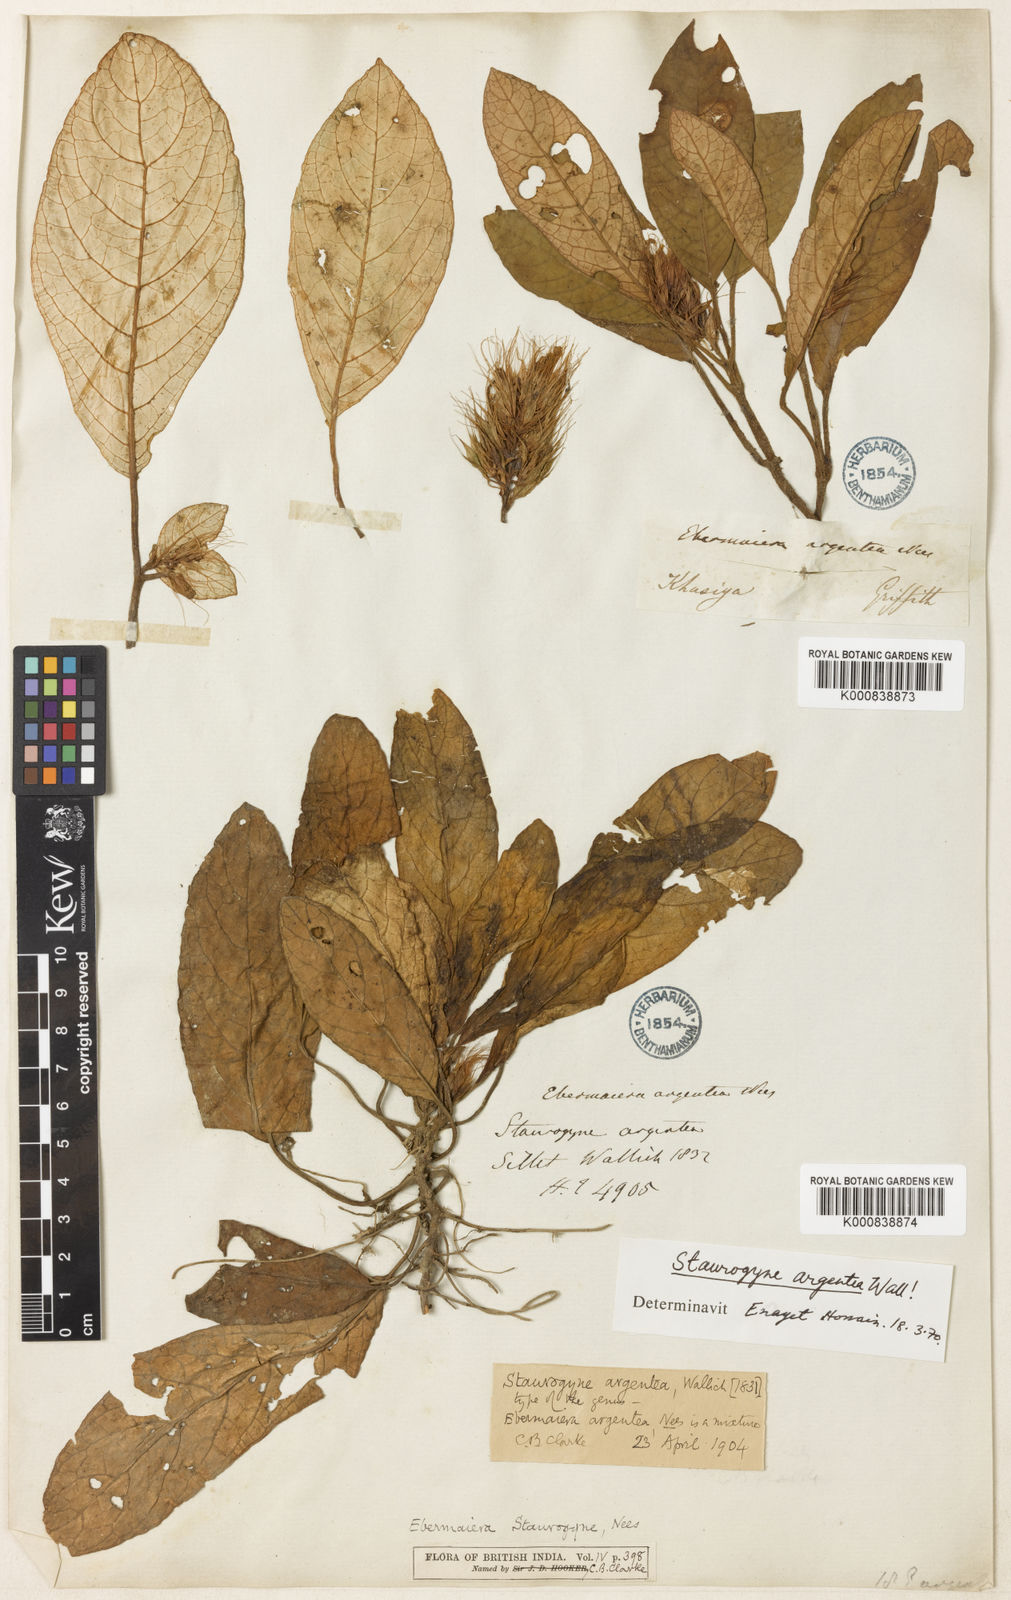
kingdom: Plantae
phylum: Tracheophyta
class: Magnoliopsida
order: Lamiales
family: Acanthaceae
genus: Staurogyne
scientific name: Staurogyne argentea
